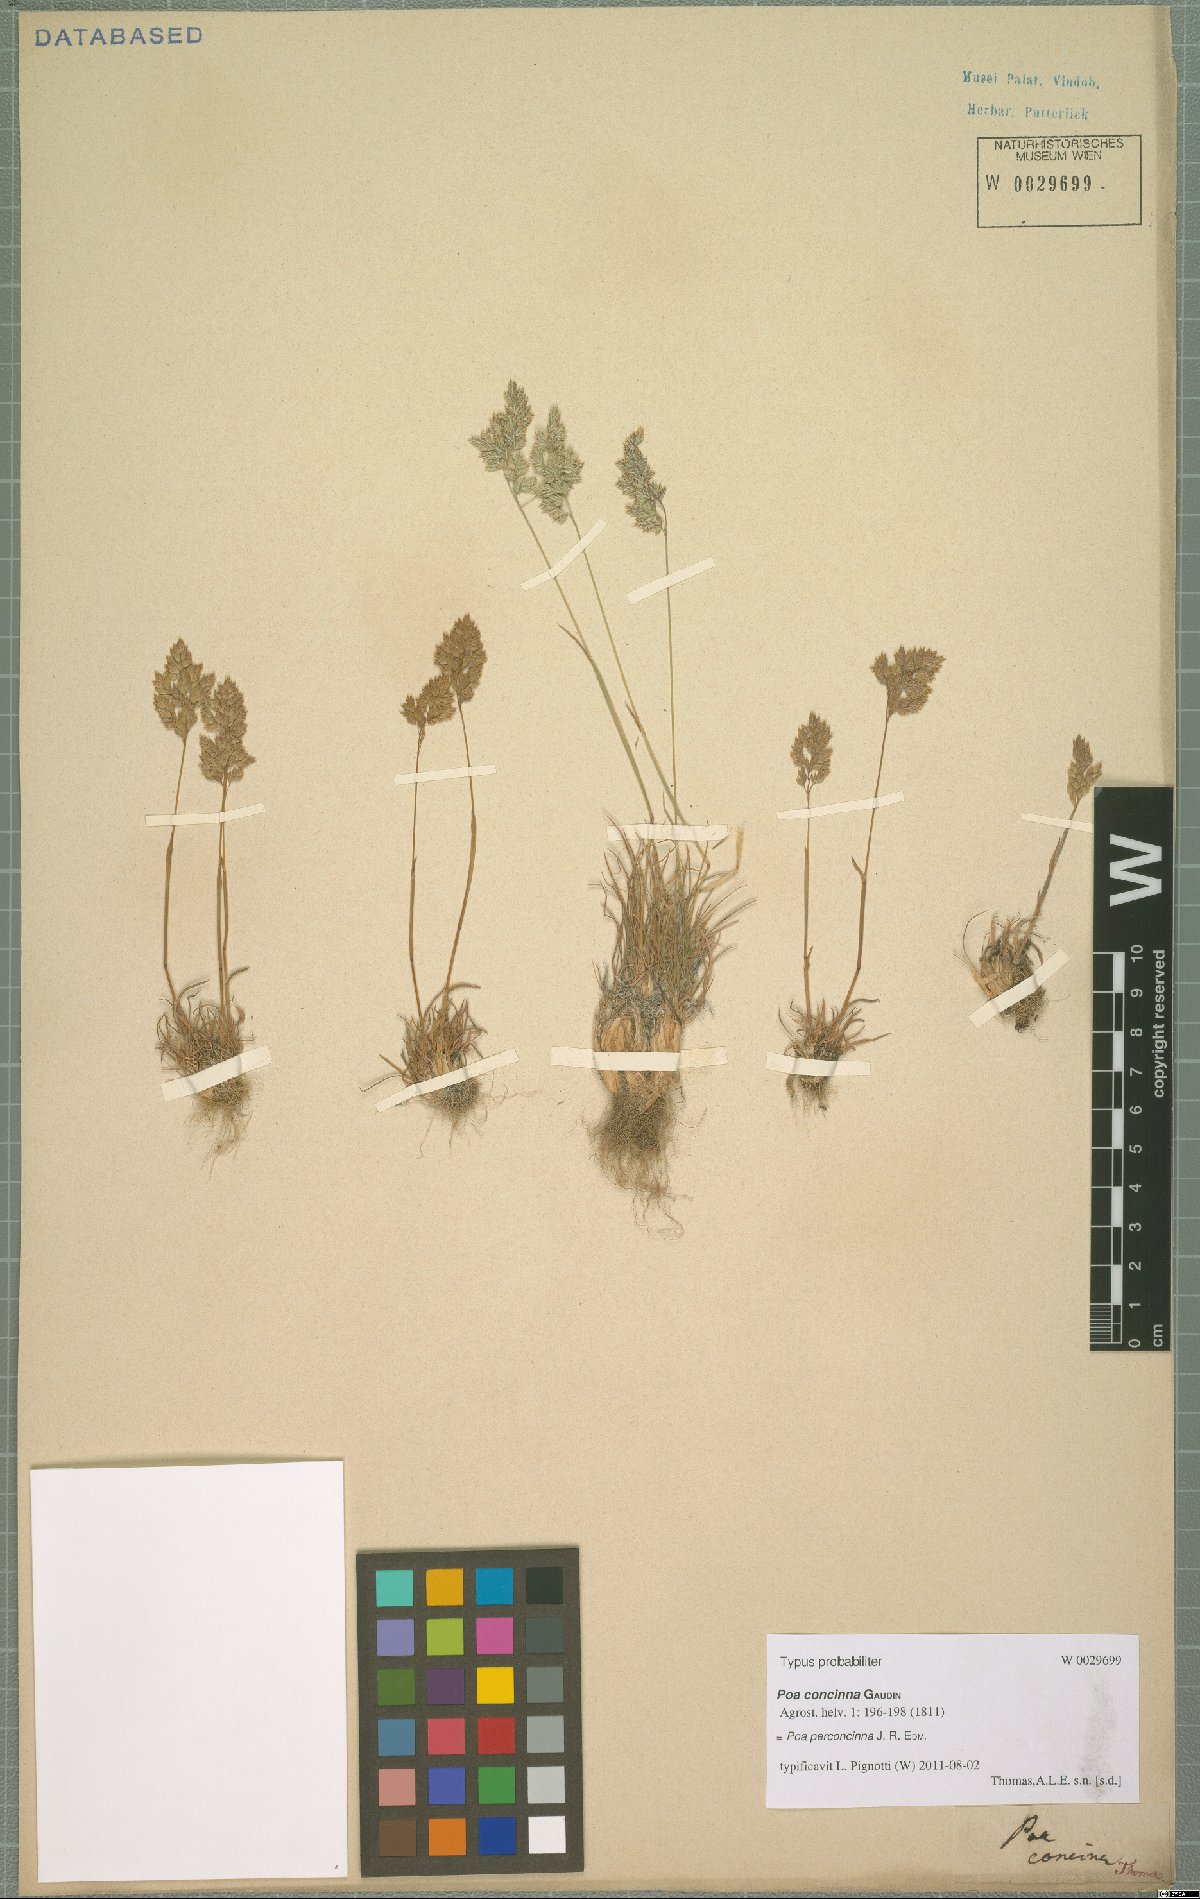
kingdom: Plantae
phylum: Tracheophyta
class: Liliopsida
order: Poales
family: Poaceae
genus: Poa
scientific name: Poa perconcinna
